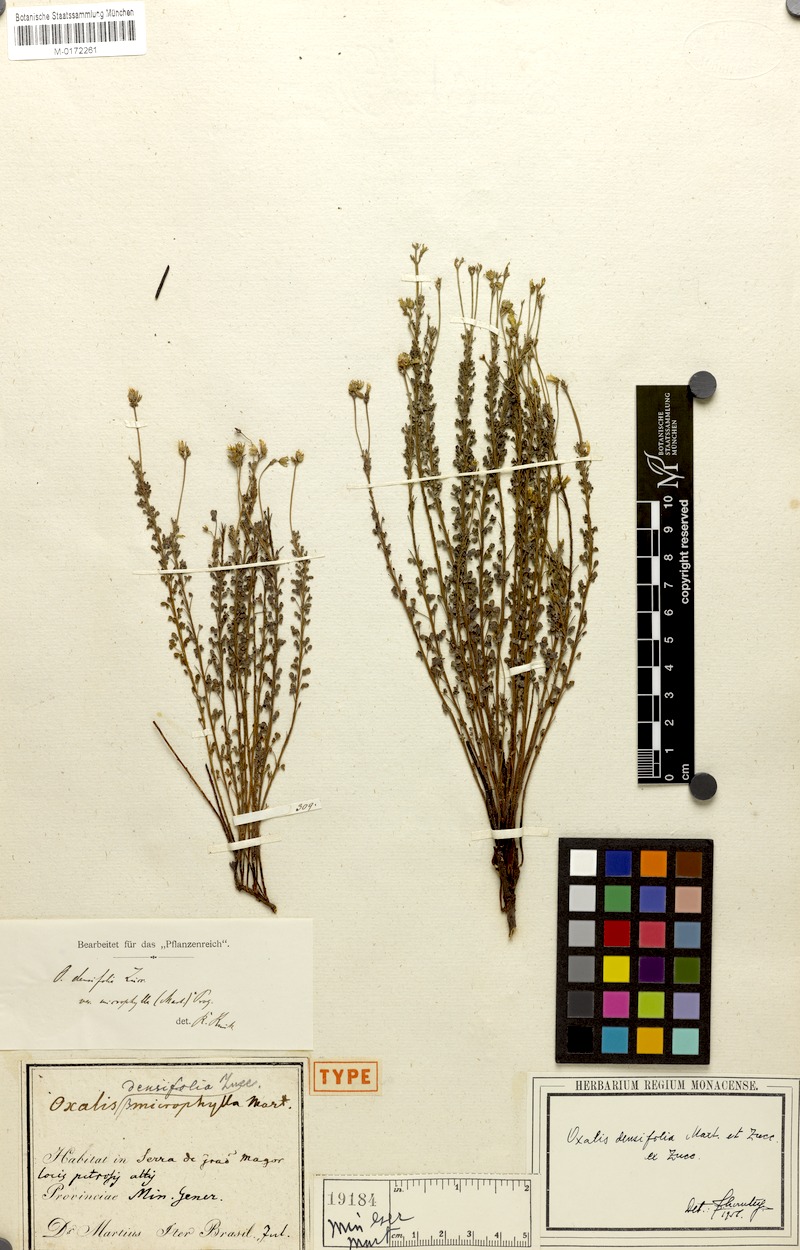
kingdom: Plantae
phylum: Tracheophyta
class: Magnoliopsida
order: Oxalidales
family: Oxalidaceae
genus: Oxalis
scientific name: Oxalis densifolia
